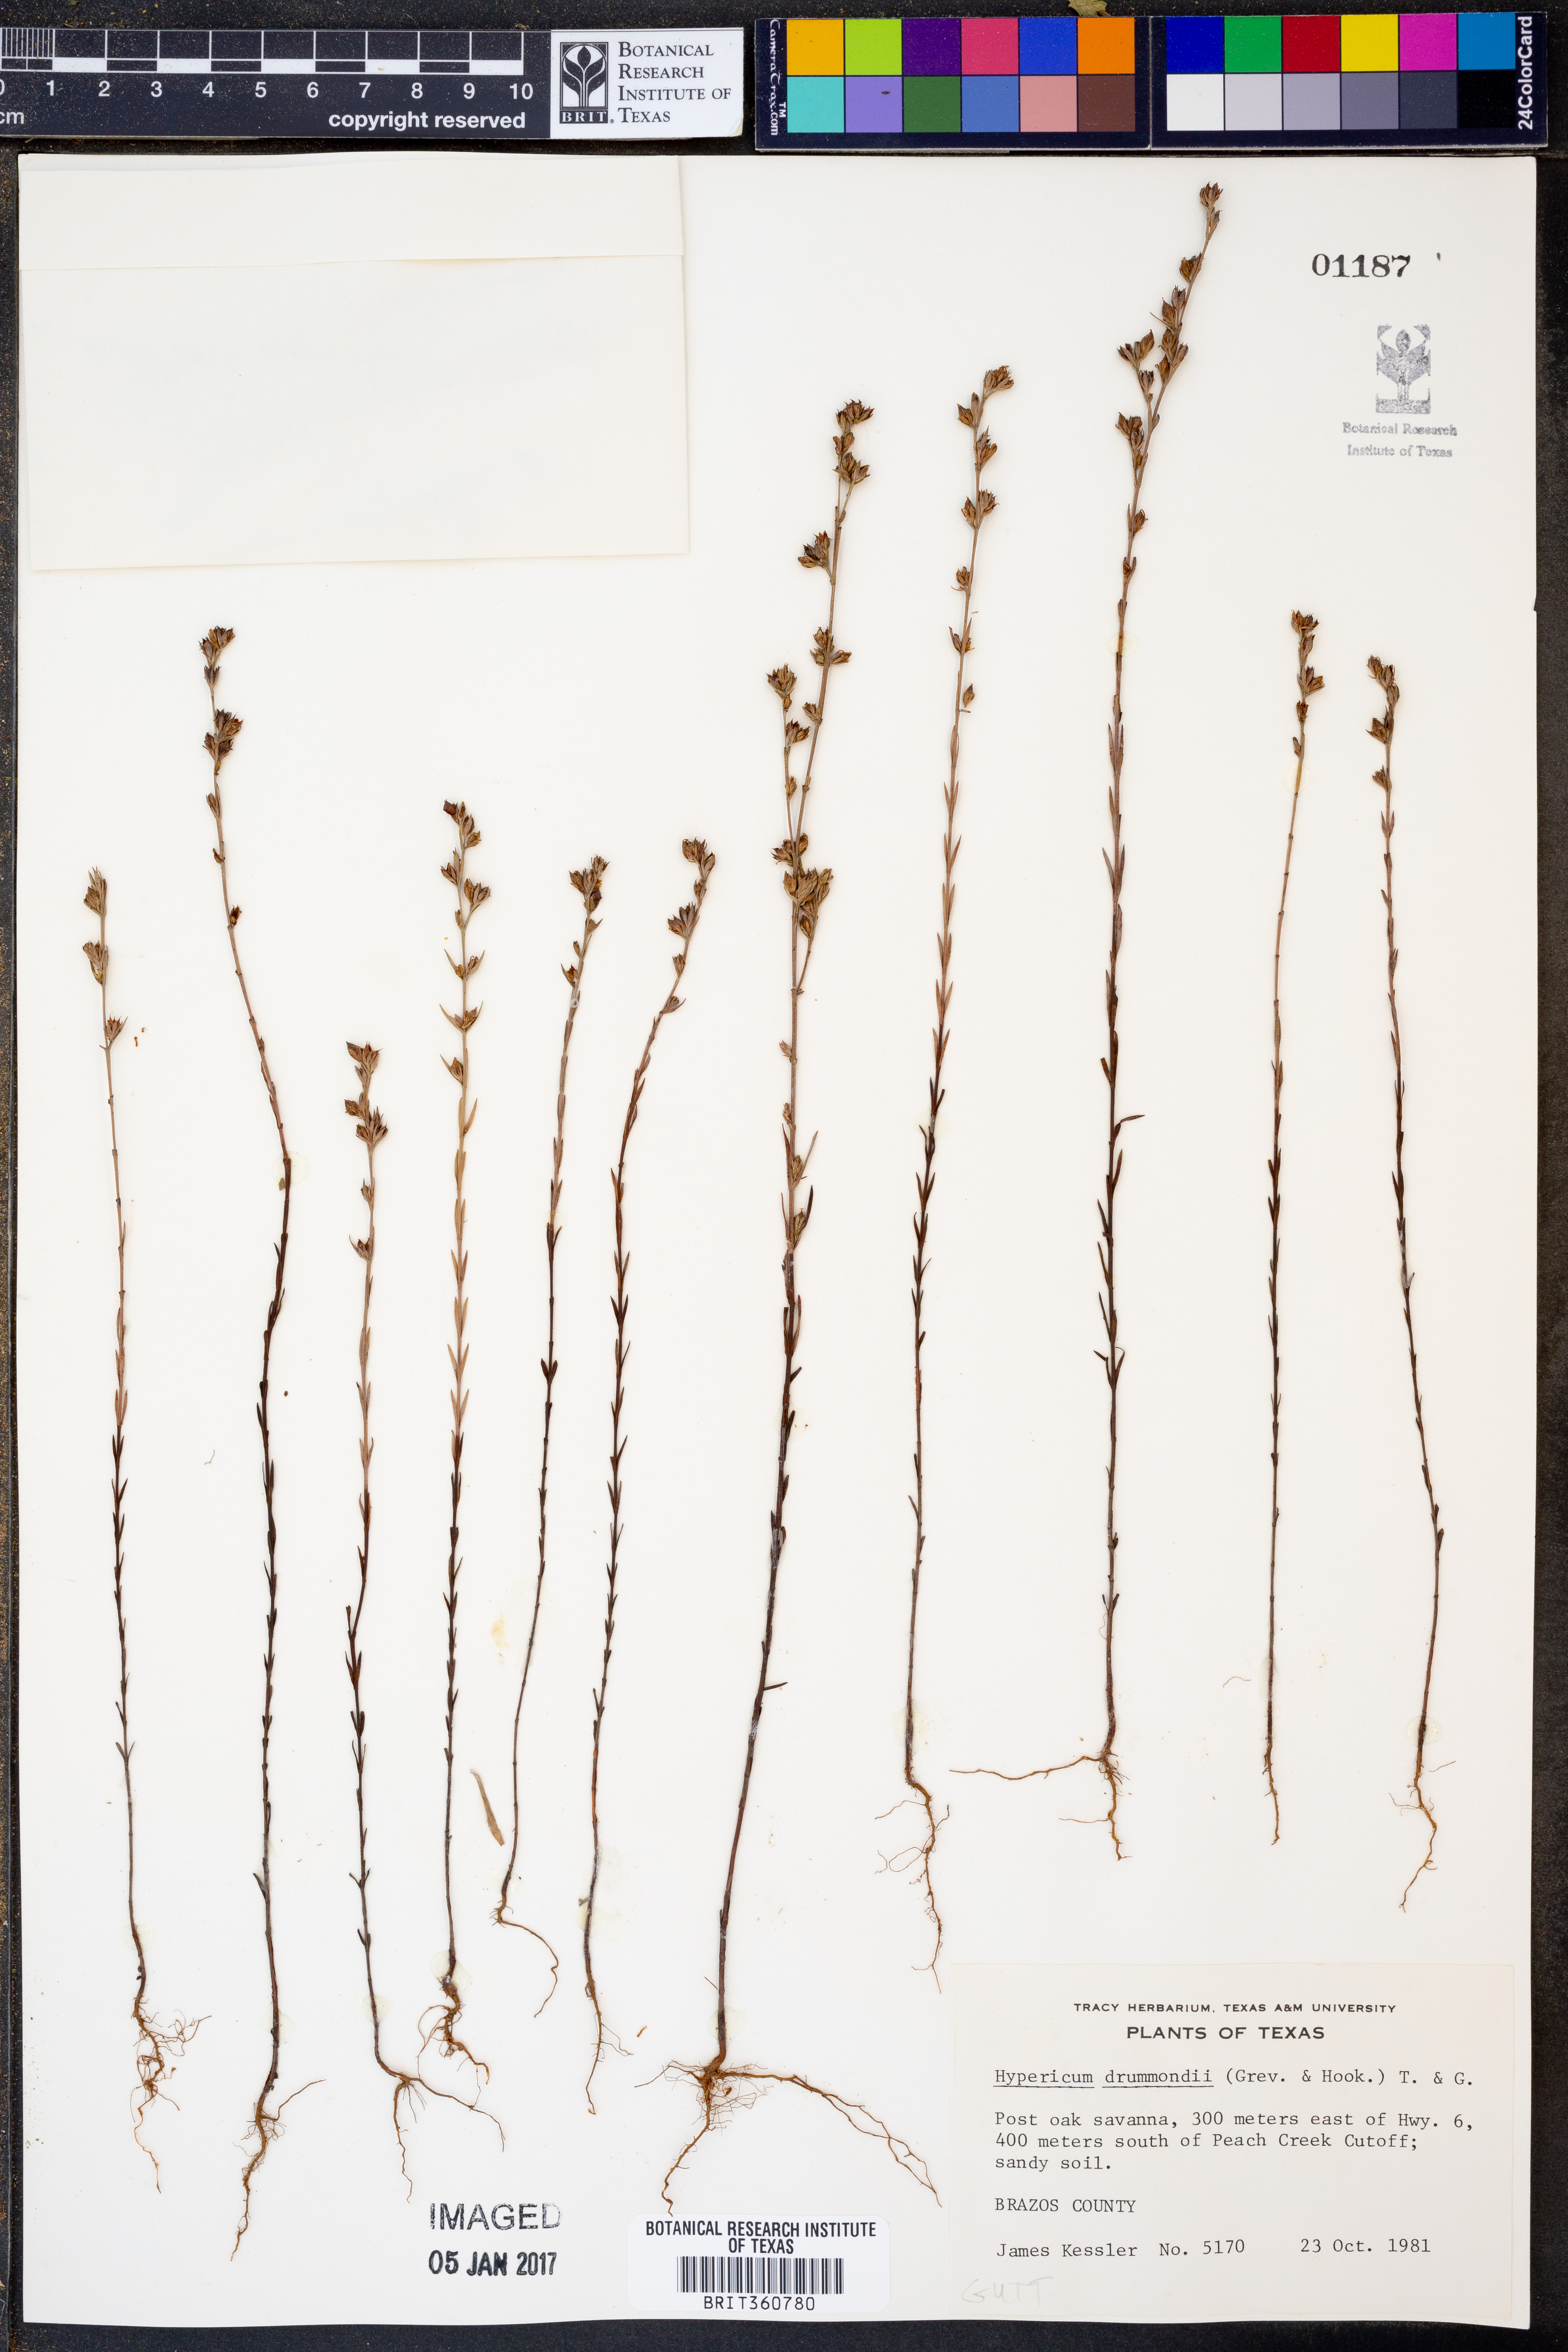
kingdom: Plantae
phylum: Tracheophyta
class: Magnoliopsida
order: Malpighiales
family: Hypericaceae
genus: Hypericum
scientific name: Hypericum drummondii
